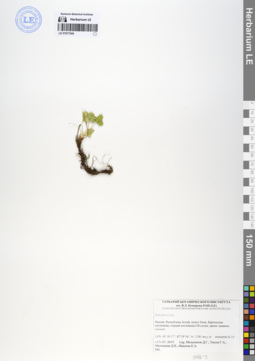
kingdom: Plantae
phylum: Tracheophyta
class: Magnoliopsida
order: Rosales
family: Rosaceae
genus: Potentilla
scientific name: Potentilla
